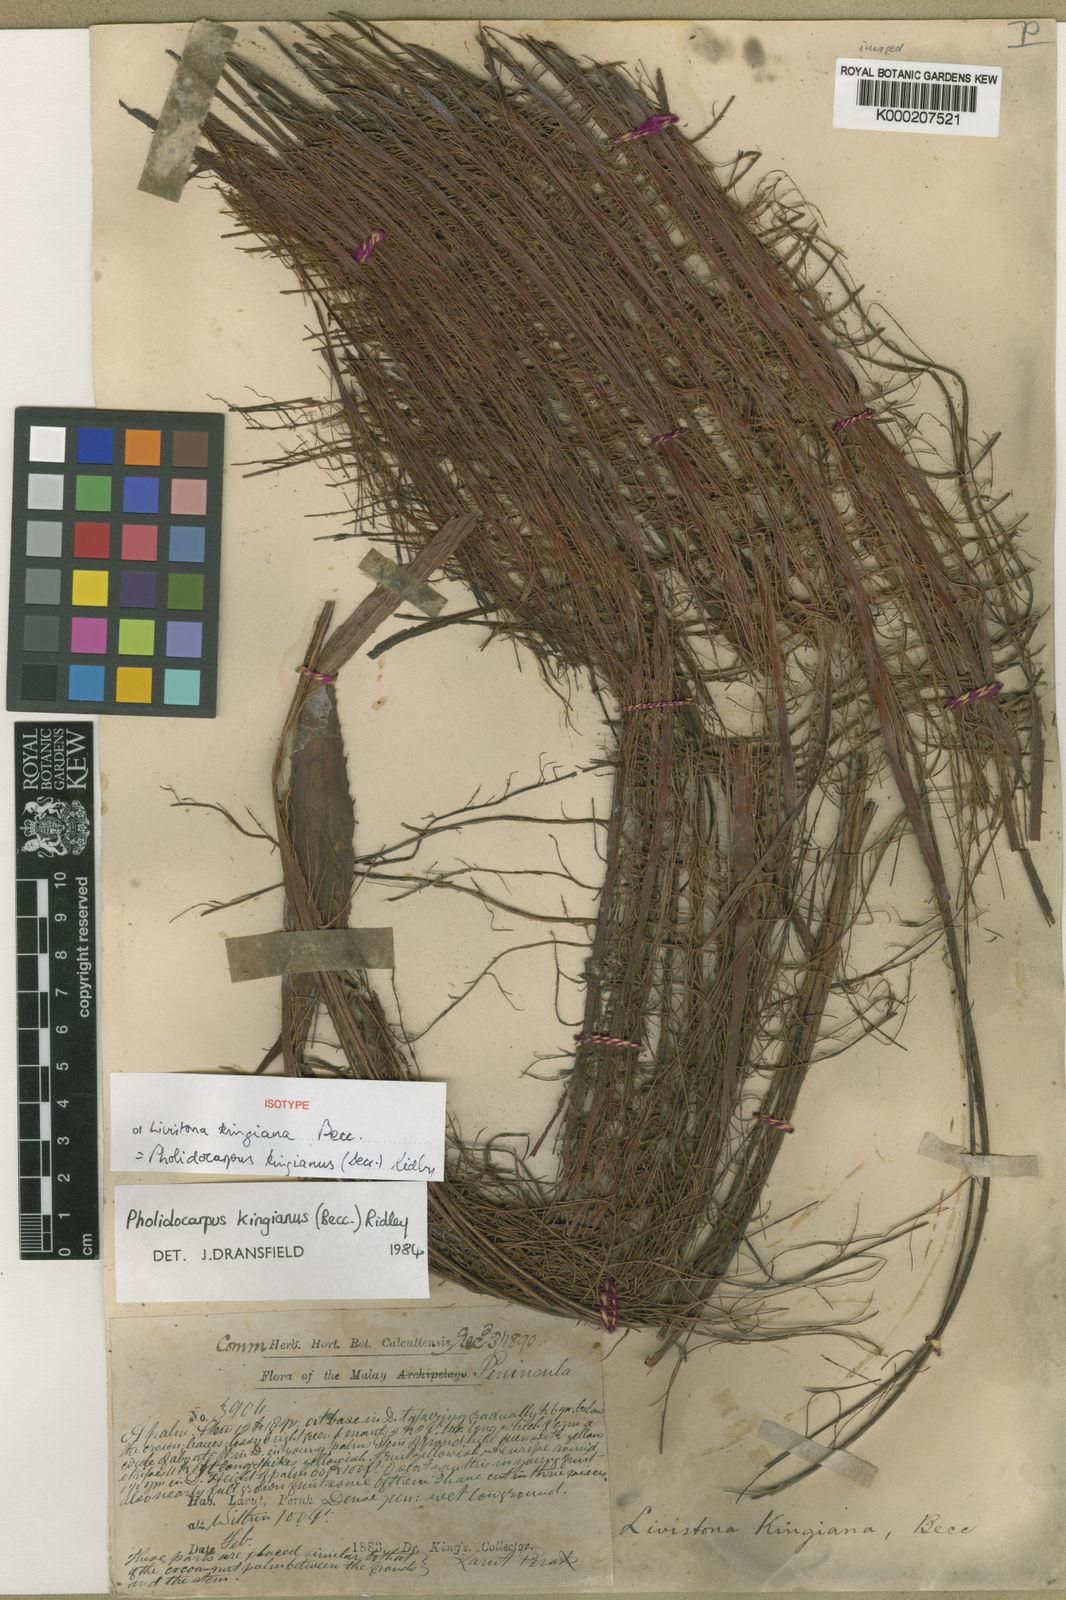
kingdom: Plantae
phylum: Tracheophyta
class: Liliopsida
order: Arecales
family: Arecaceae
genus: Pholidocarpus
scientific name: Pholidocarpus kingianus
